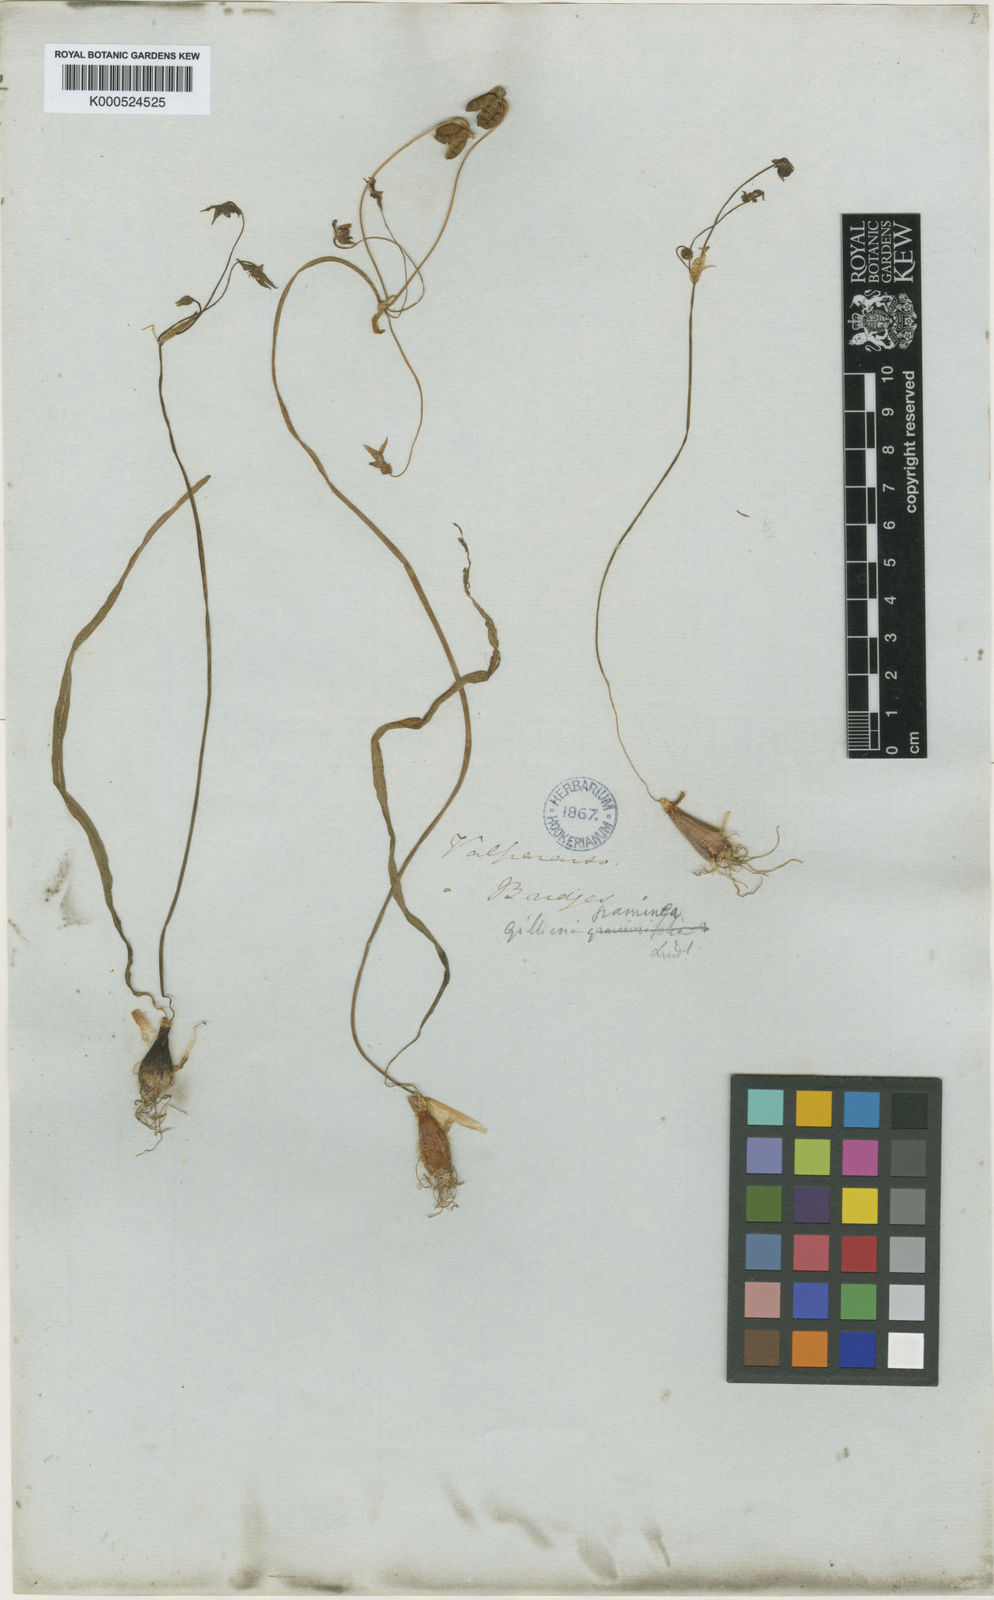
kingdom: Plantae
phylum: Tracheophyta
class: Liliopsida
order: Asparagales
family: Amaryllidaceae
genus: Gilliesia
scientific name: Gilliesia graminea
